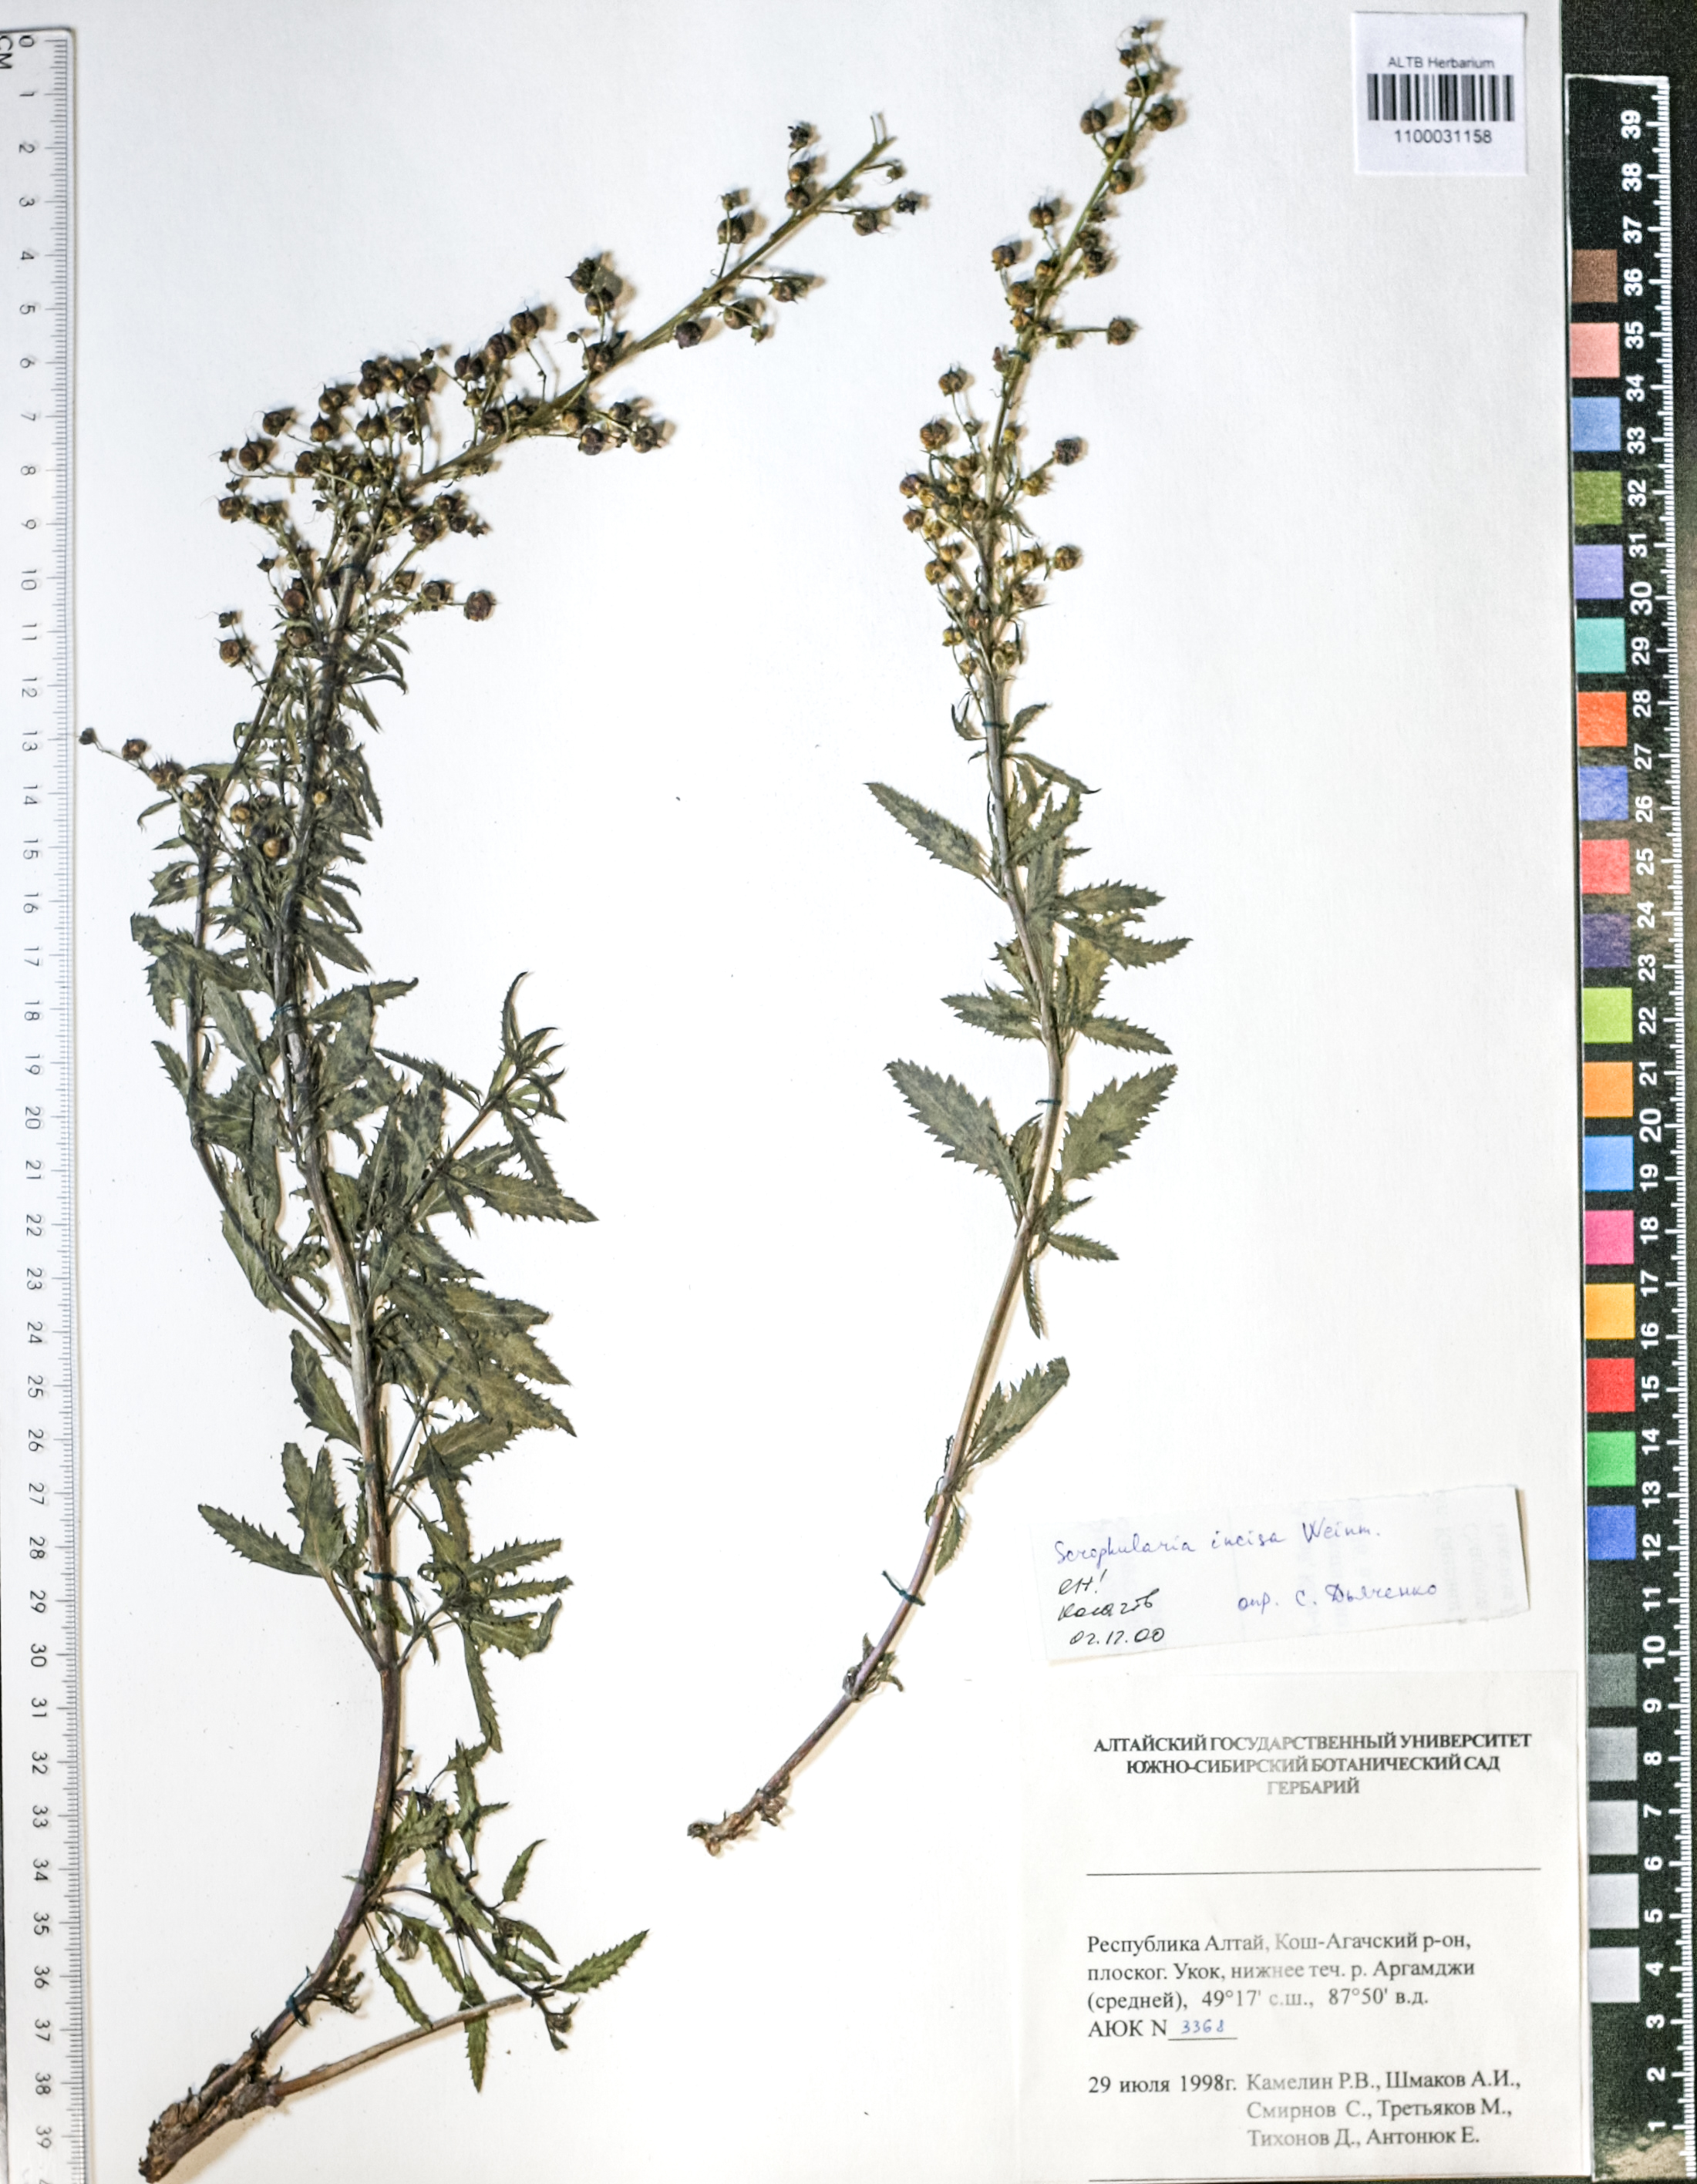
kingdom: Plantae
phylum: Tracheophyta
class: Magnoliopsida
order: Lamiales
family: Scrophulariaceae
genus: Scrophularia
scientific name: Scrophularia incisa
